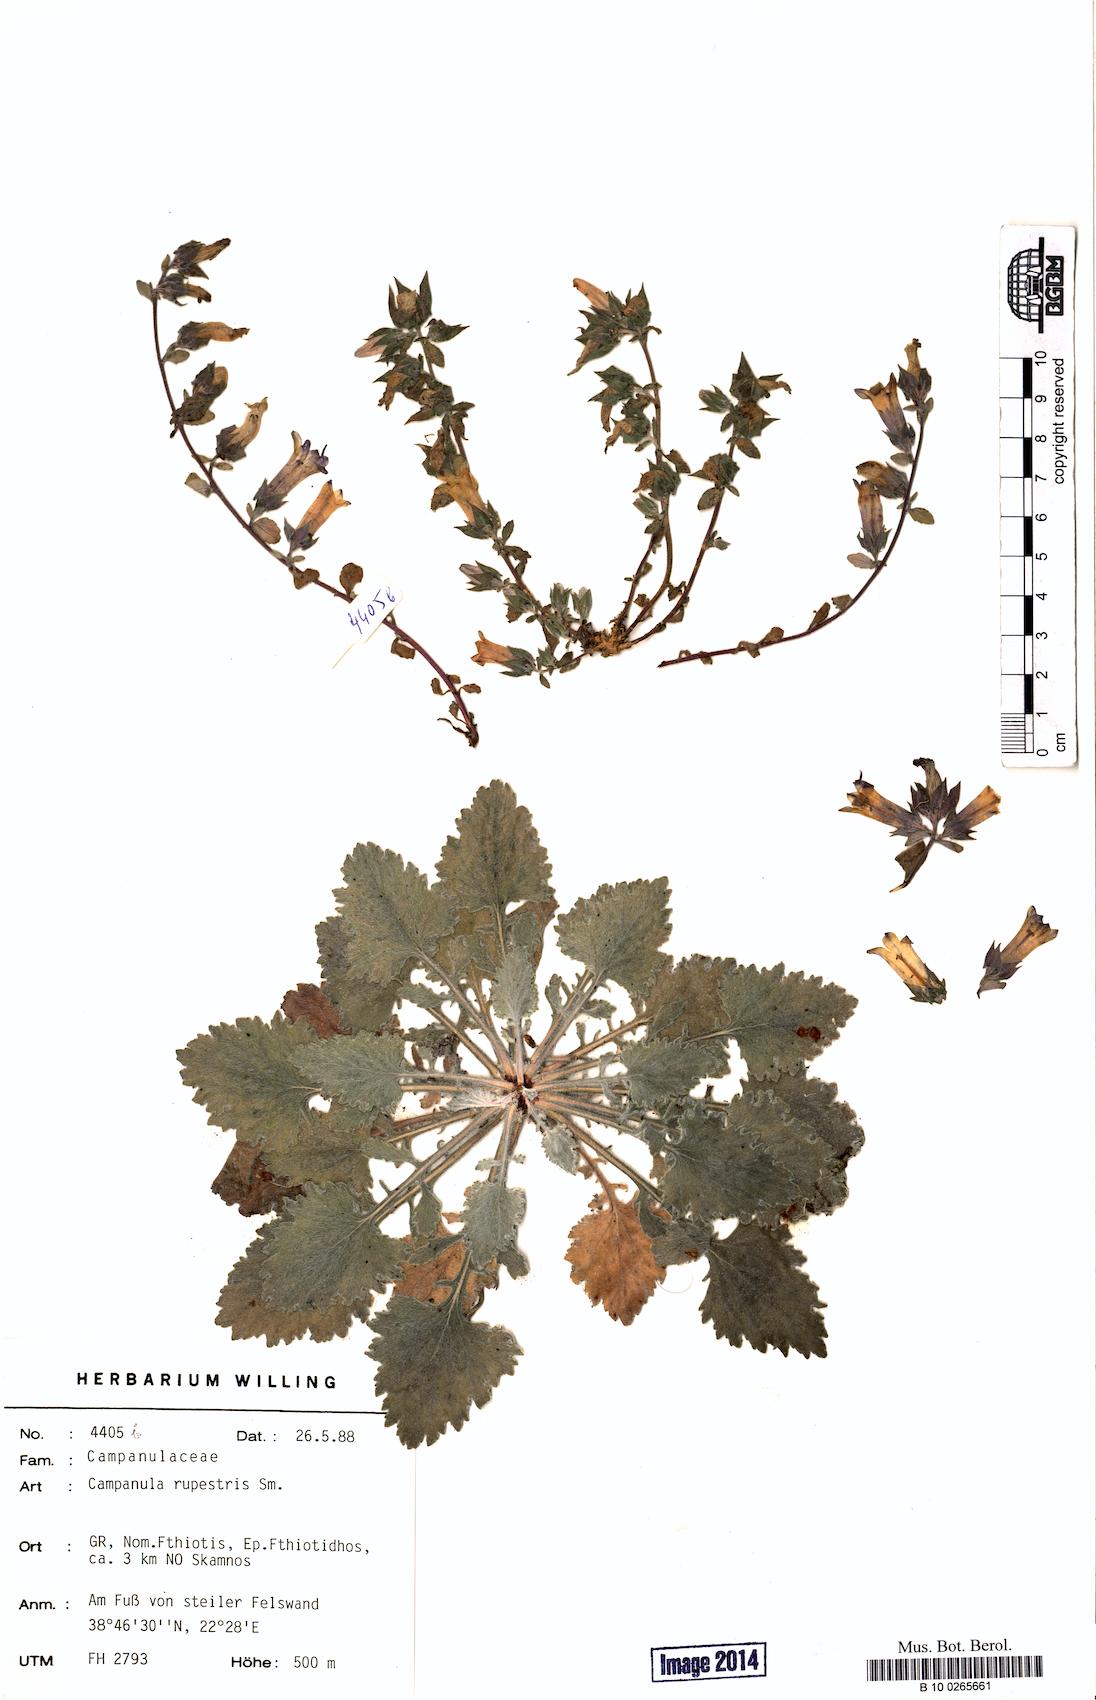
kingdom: Plantae
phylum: Tracheophyta
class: Magnoliopsida
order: Asterales
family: Campanulaceae
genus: Campanula
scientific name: Campanula rupestris
